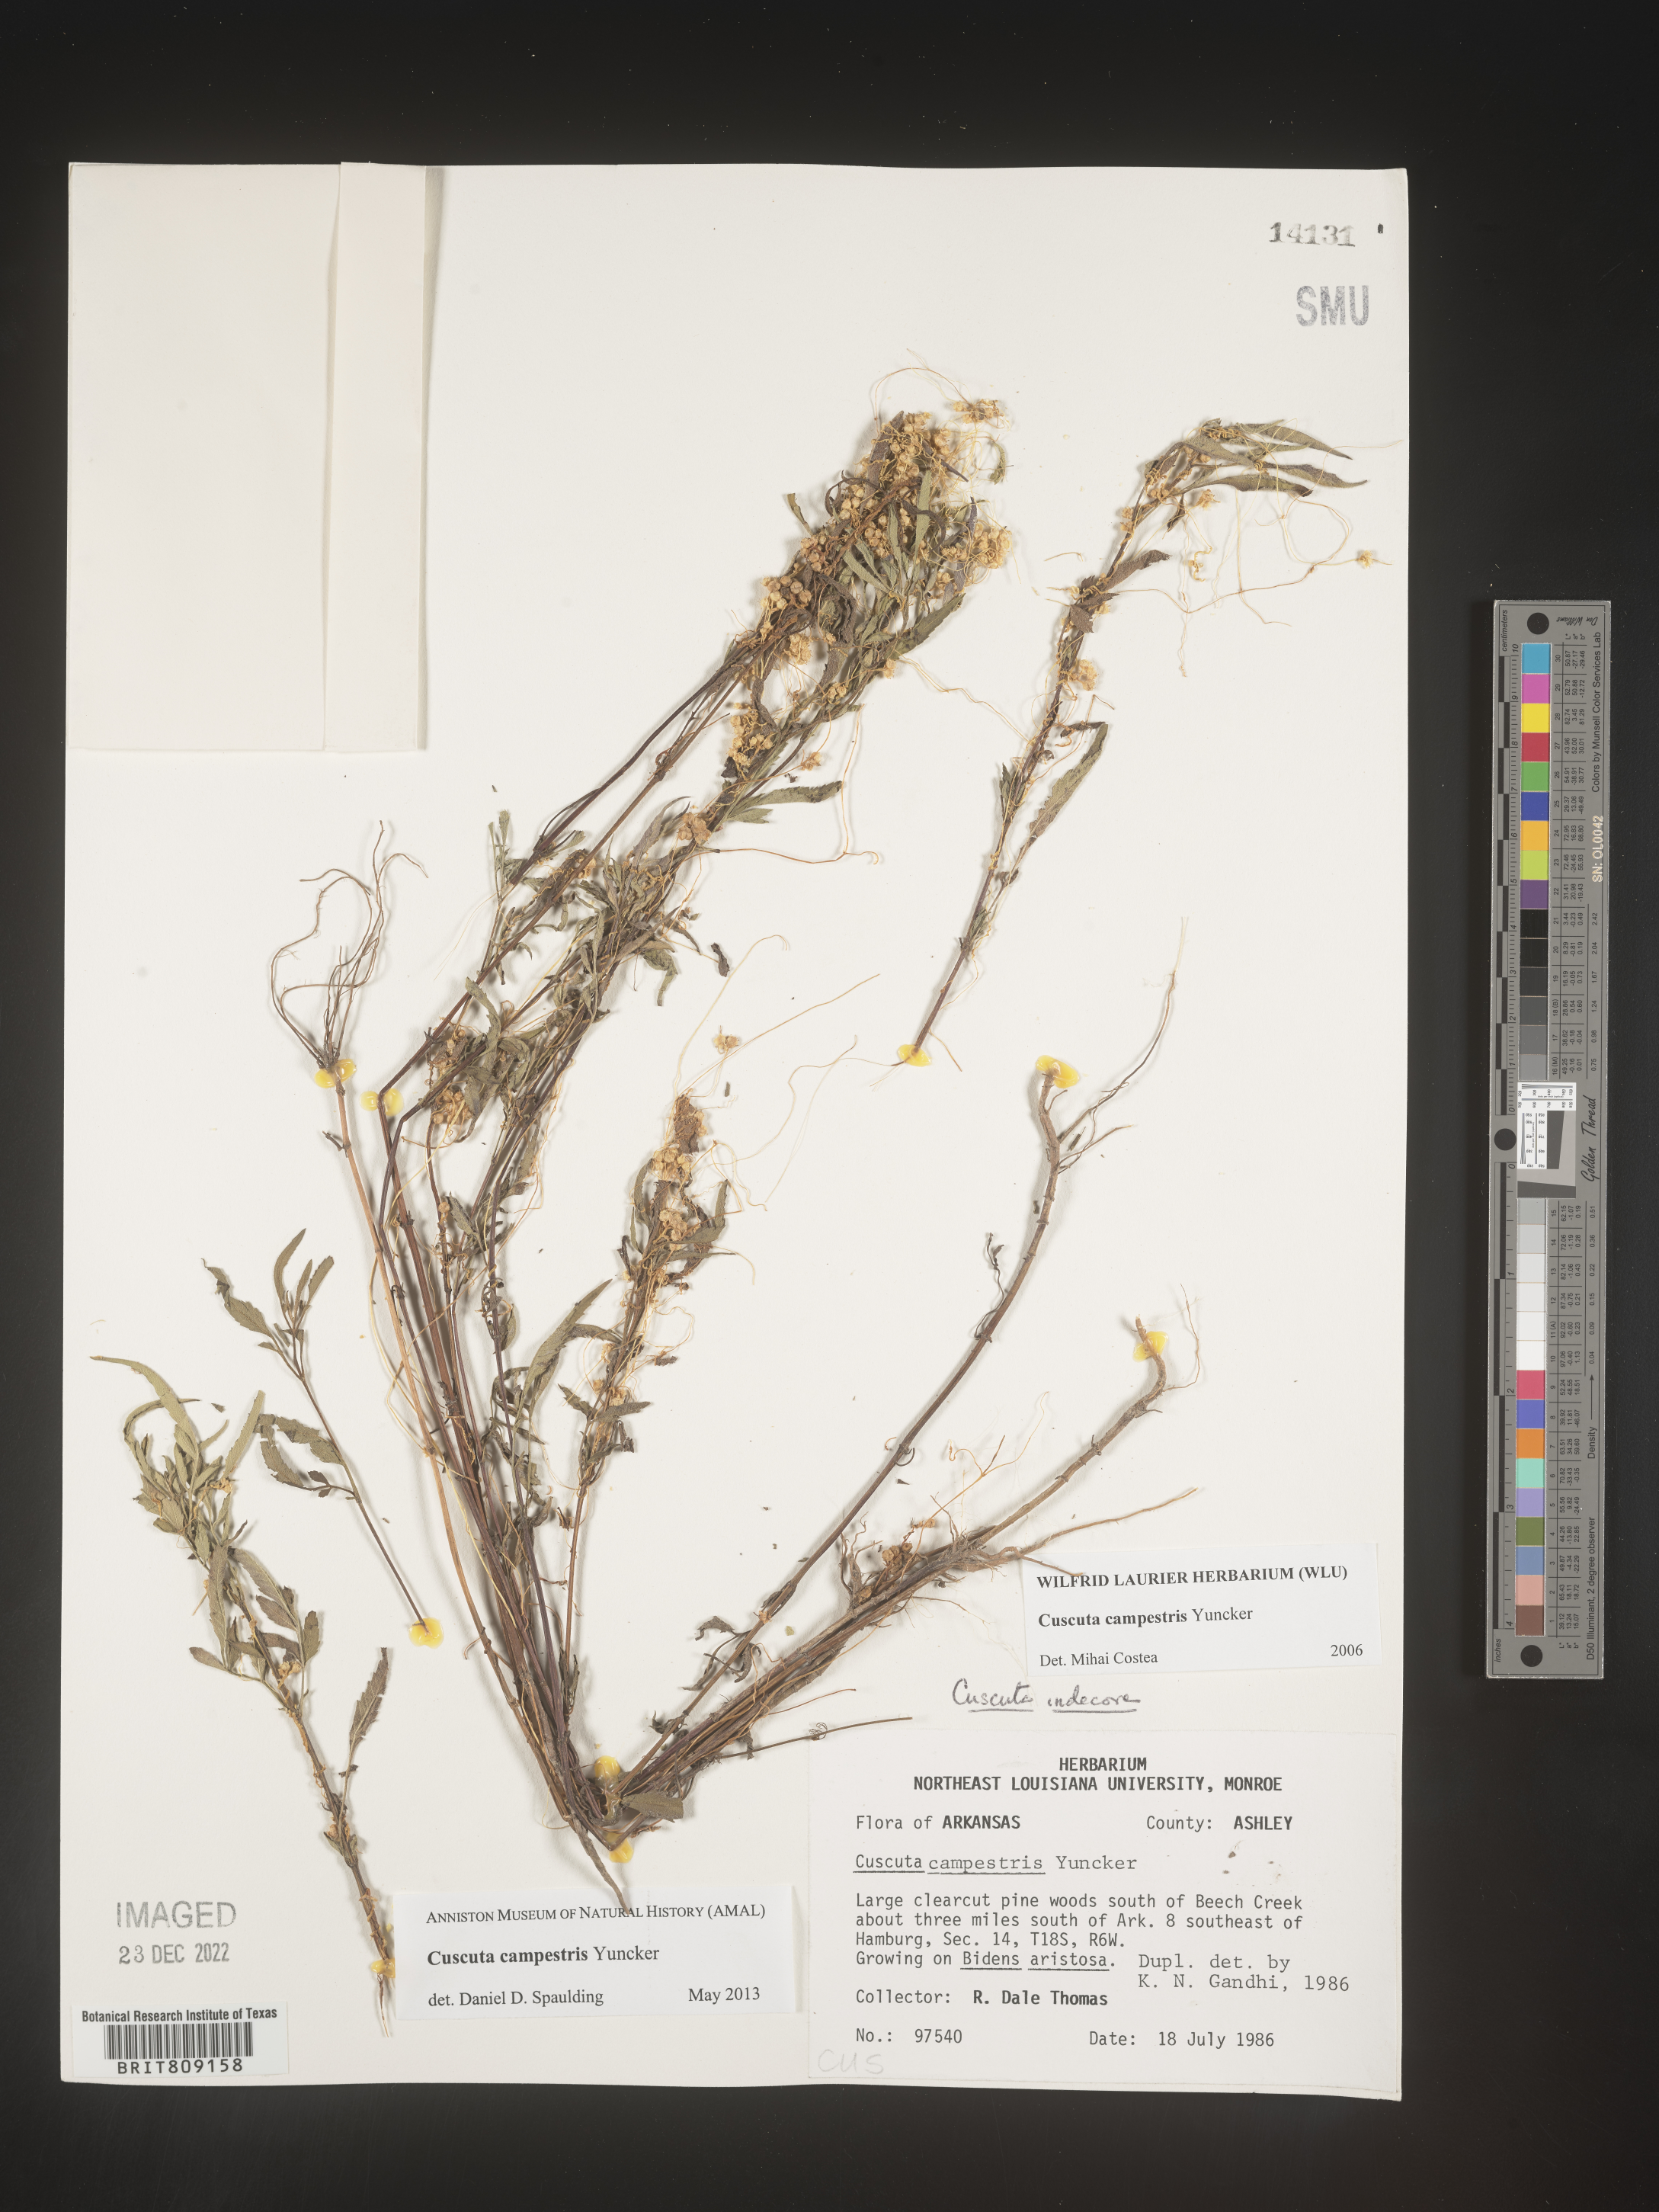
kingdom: Plantae
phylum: Tracheophyta
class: Magnoliopsida
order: Solanales
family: Convolvulaceae
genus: Cuscuta
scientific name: Cuscuta campestris
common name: Yellow dodder
